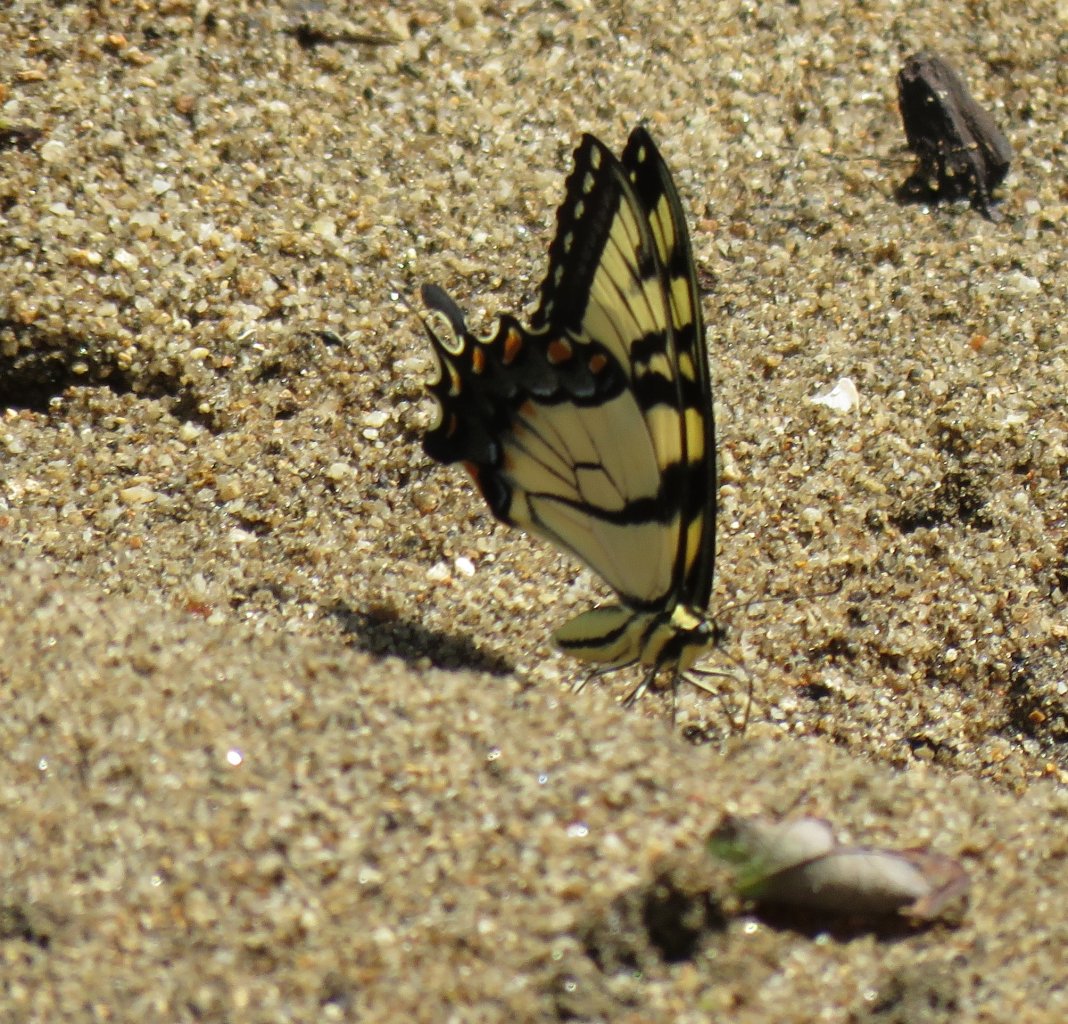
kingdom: Animalia
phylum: Arthropoda
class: Insecta
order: Lepidoptera
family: Papilionidae
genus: Pterourus
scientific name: Pterourus glaucus
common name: Eastern Tiger Swallowtail
